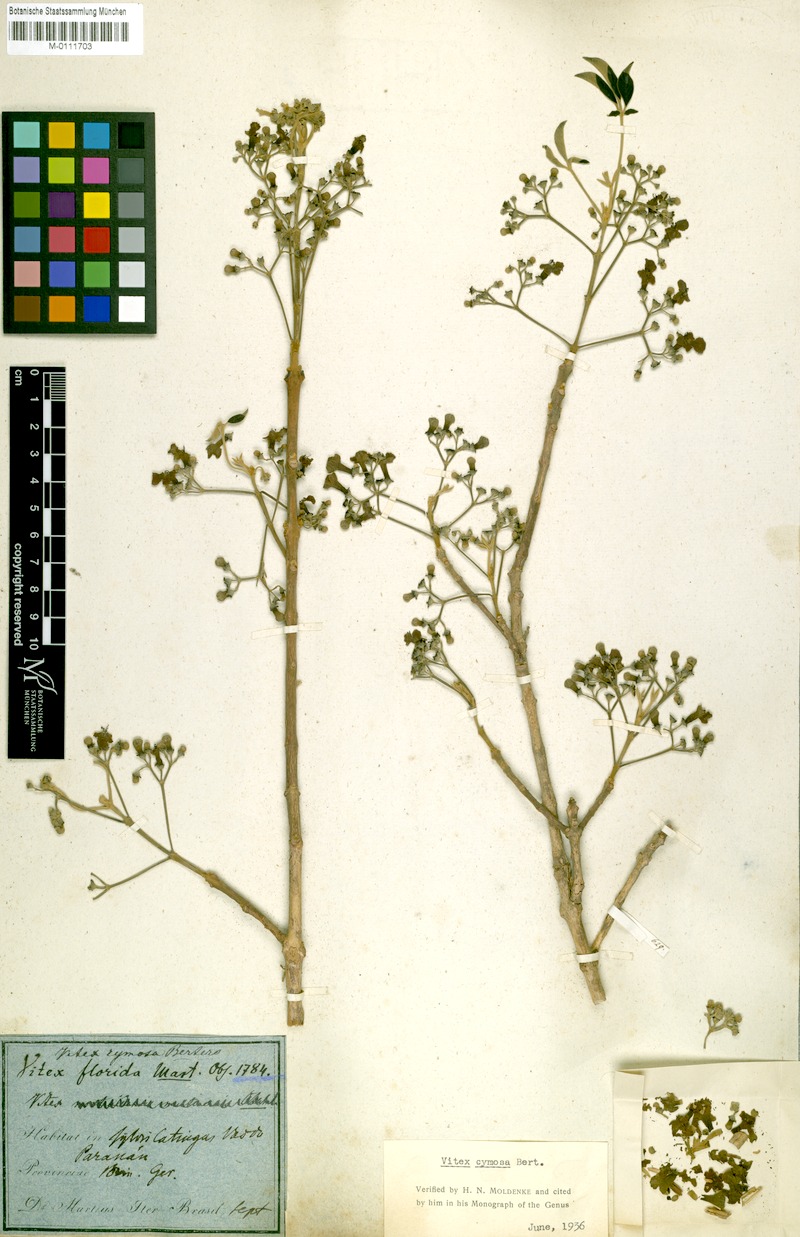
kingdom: Plantae
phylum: Tracheophyta
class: Magnoliopsida
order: Lamiales
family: Lamiaceae
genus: Vitex
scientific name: Vitex cymosa
